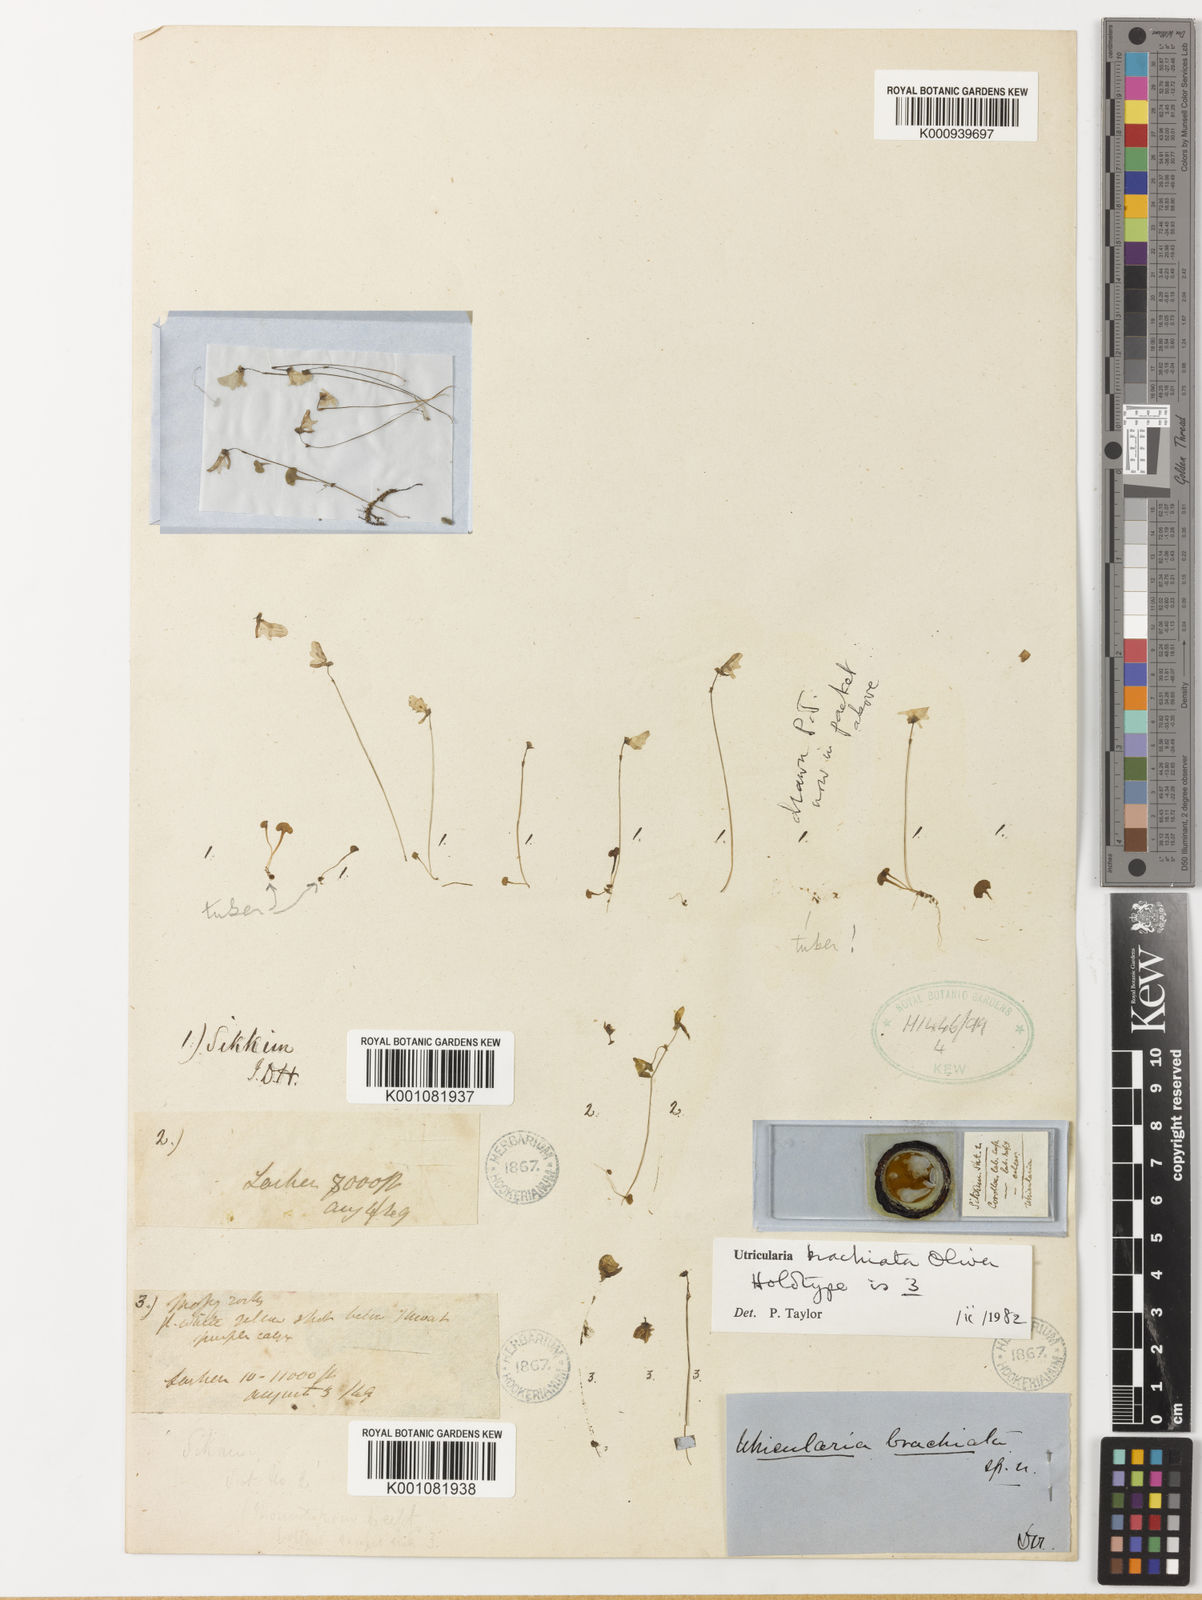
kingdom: Plantae
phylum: Tracheophyta
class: Magnoliopsida
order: Lamiales
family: Lentibulariaceae
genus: Utricularia
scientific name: Utricularia brachiata
